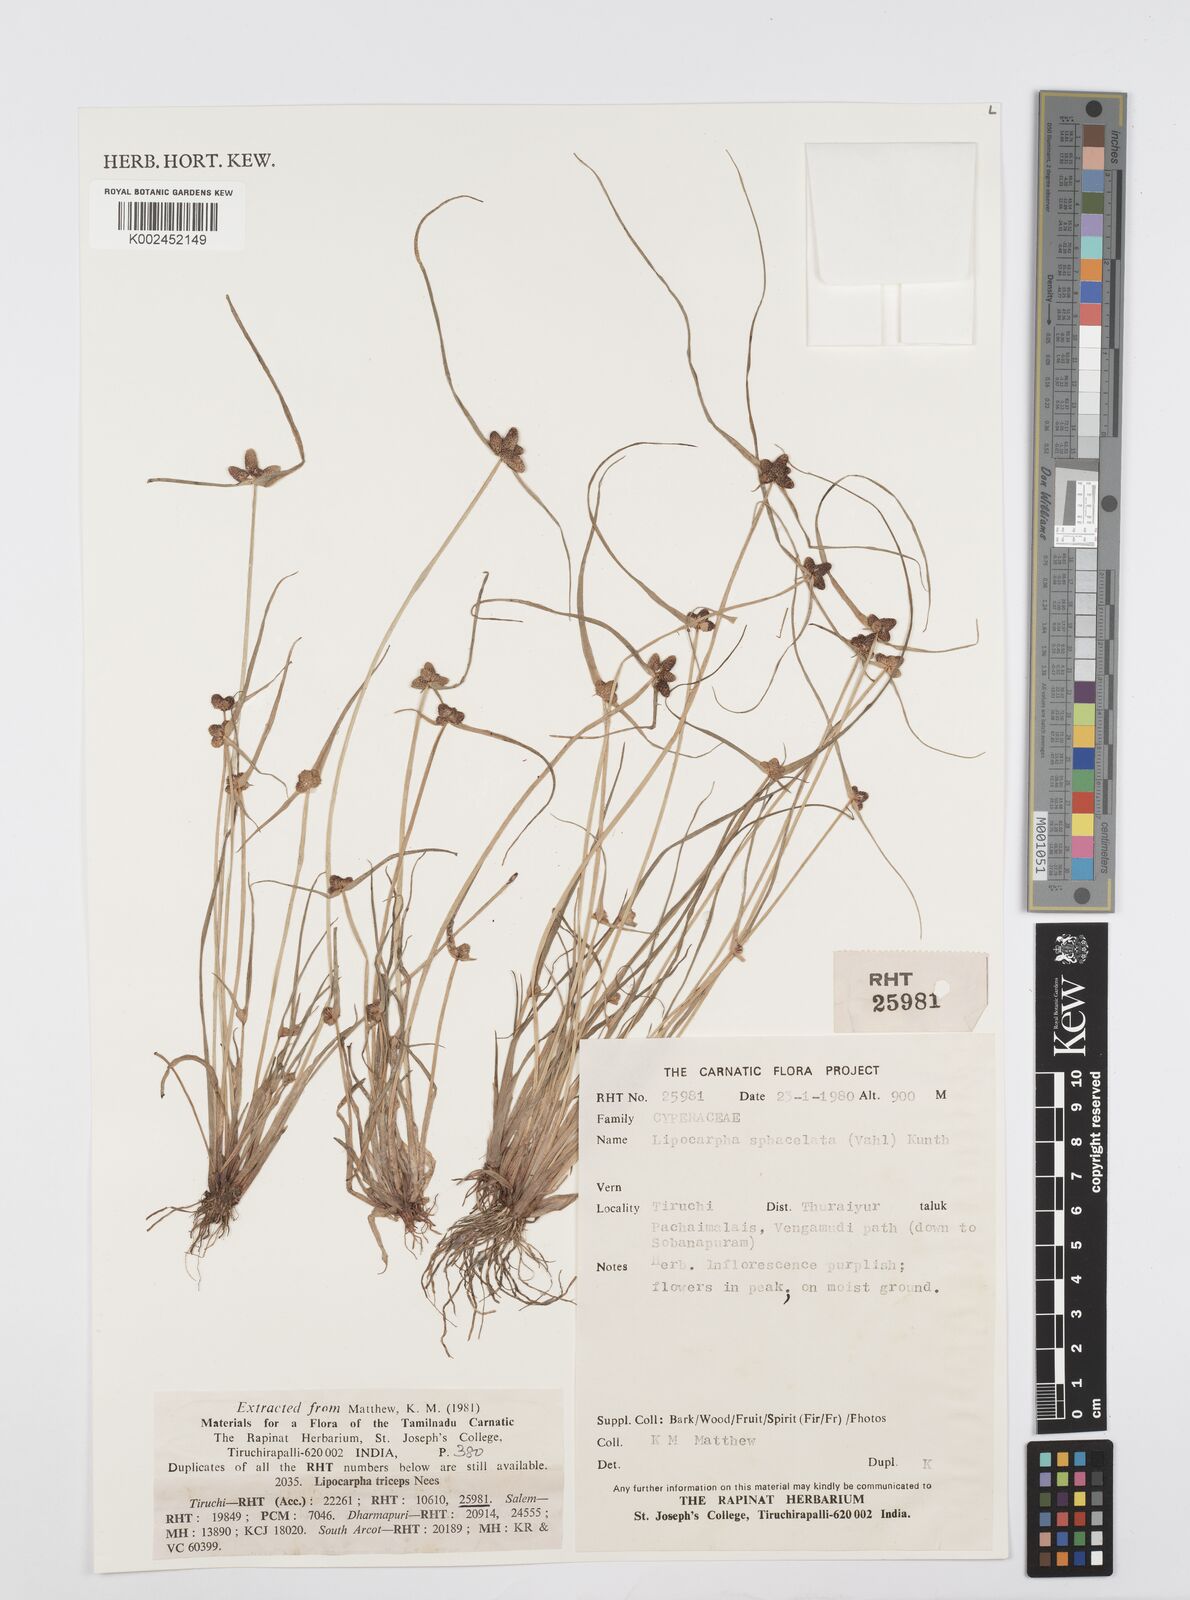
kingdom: Plantae
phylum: Tracheophyta
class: Liliopsida
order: Poales
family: Cyperaceae
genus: Cyperus
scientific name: Cyperus sphacelatus
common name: Roadside flatsedge
